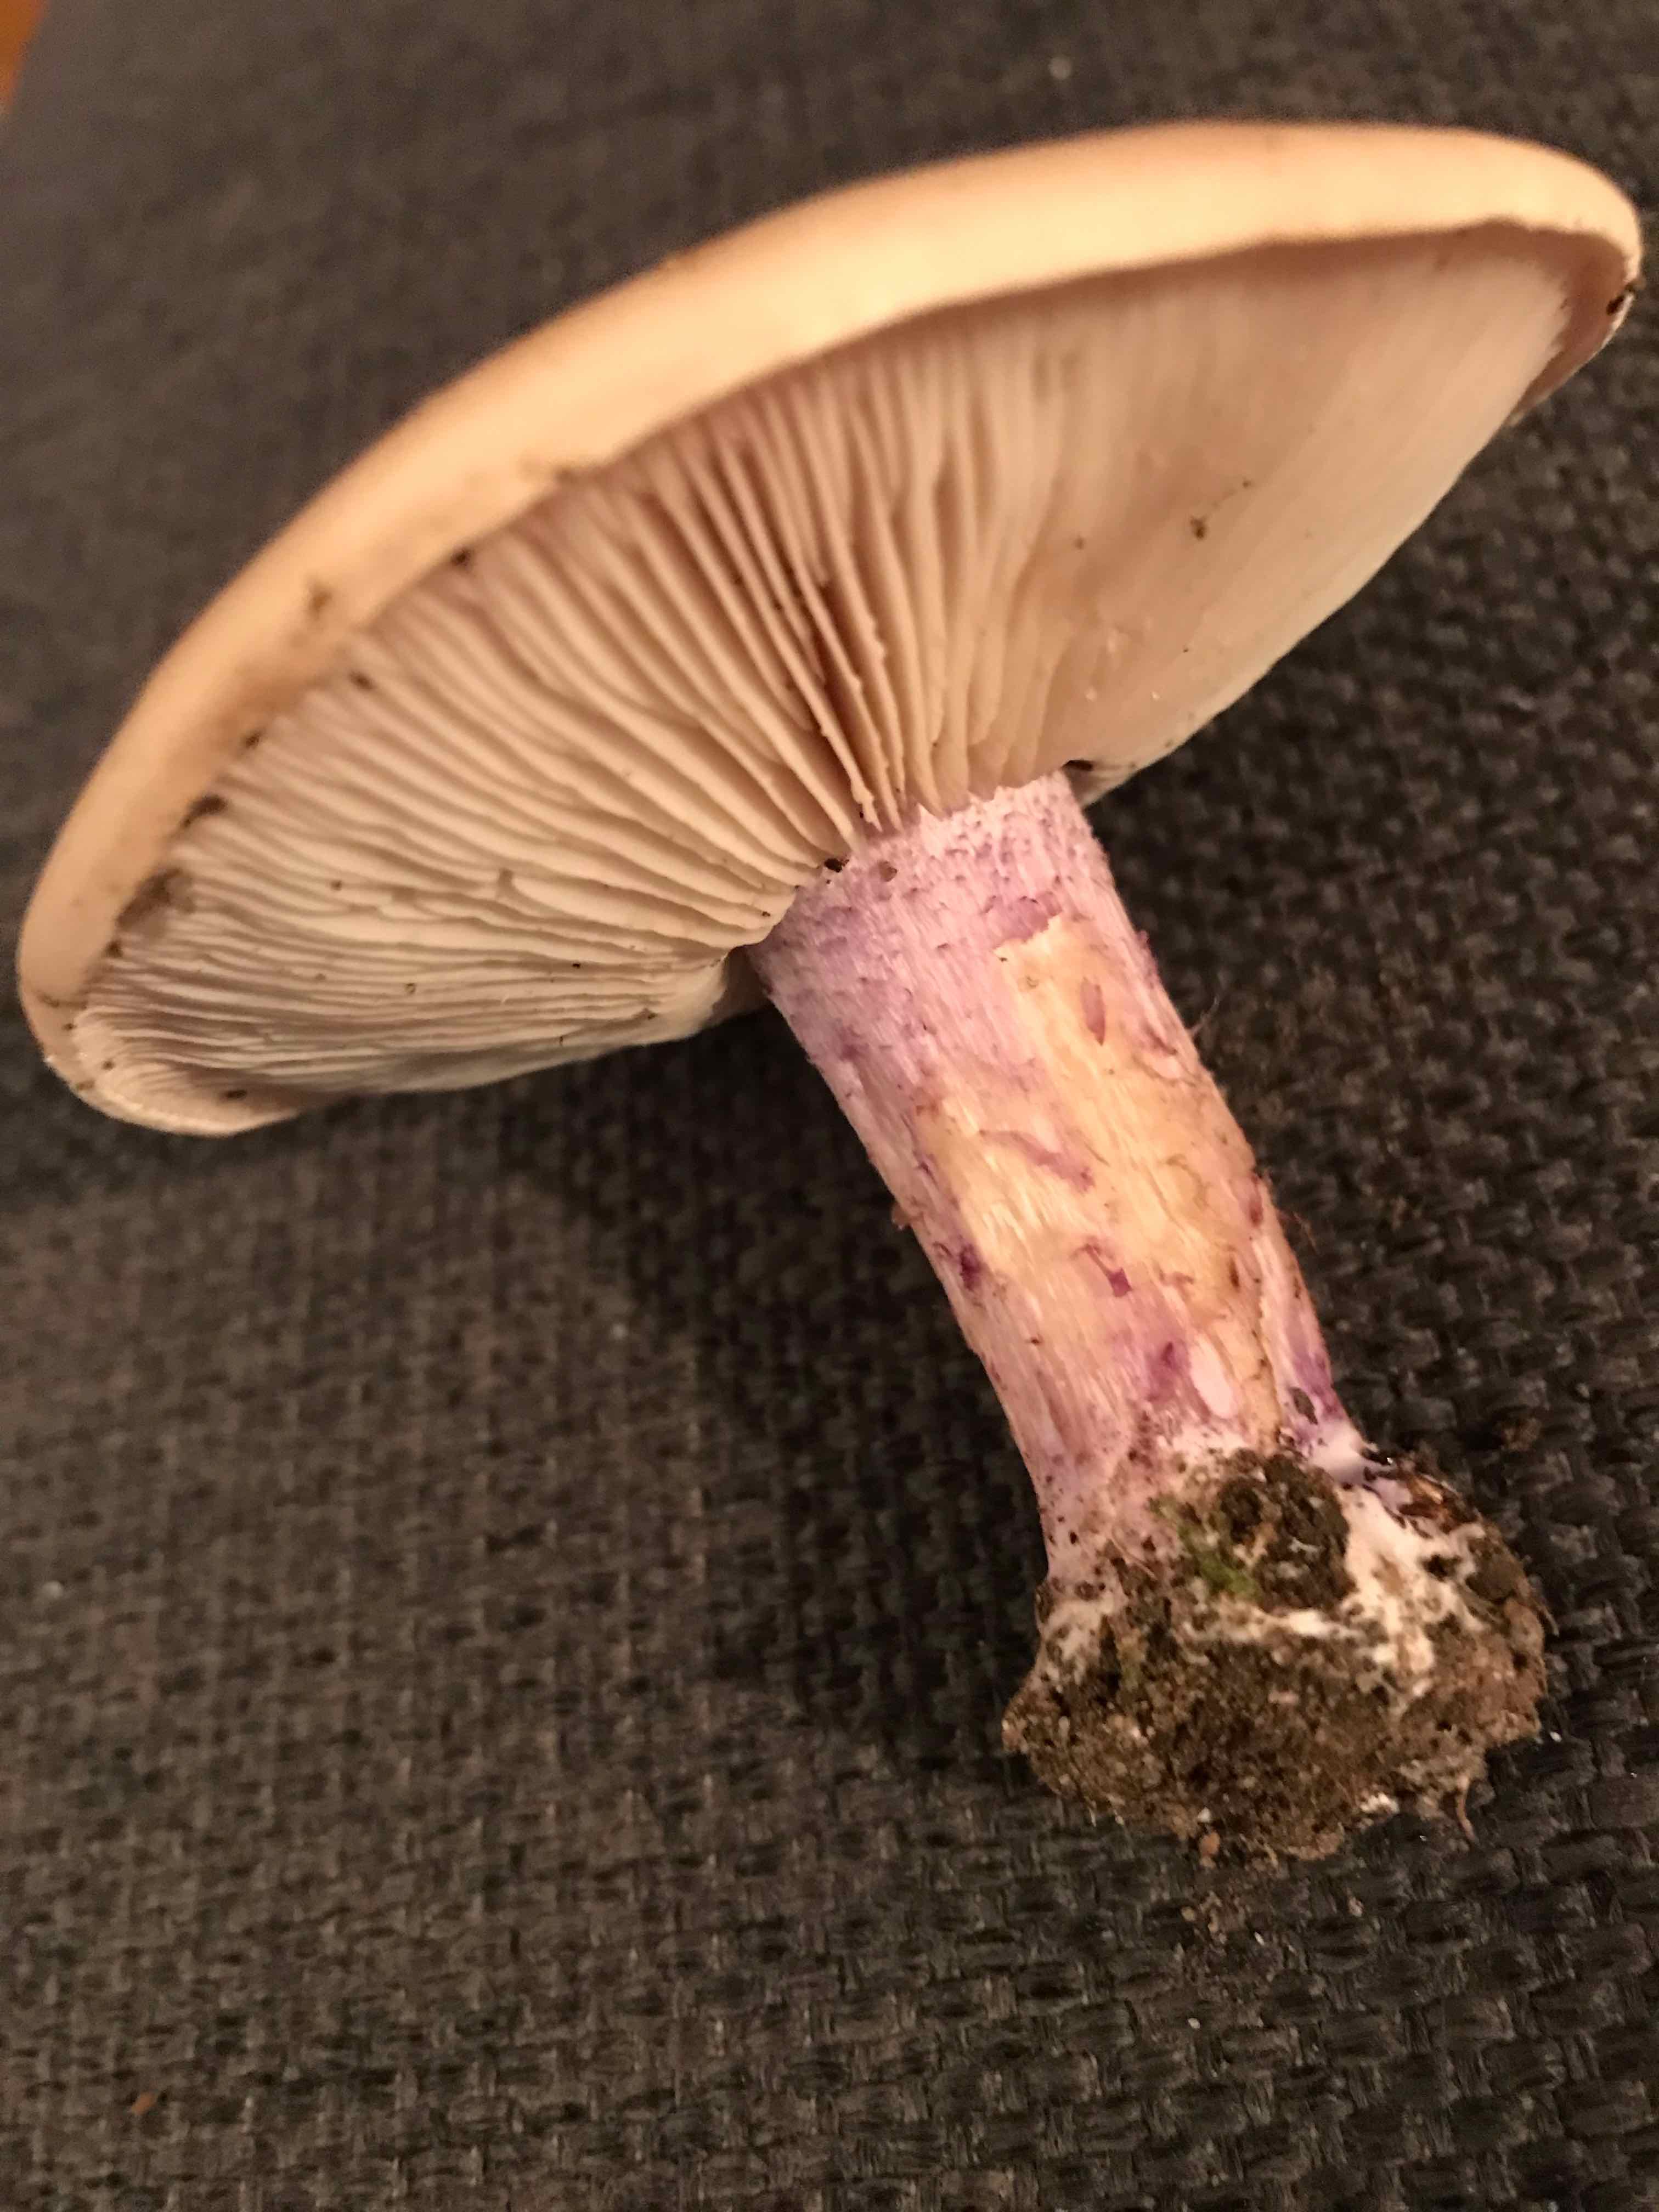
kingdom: Fungi
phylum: Basidiomycota
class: Agaricomycetes
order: Agaricales
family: Tricholomataceae
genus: Lepista
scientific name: Lepista personata
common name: bleg hekseringshat
